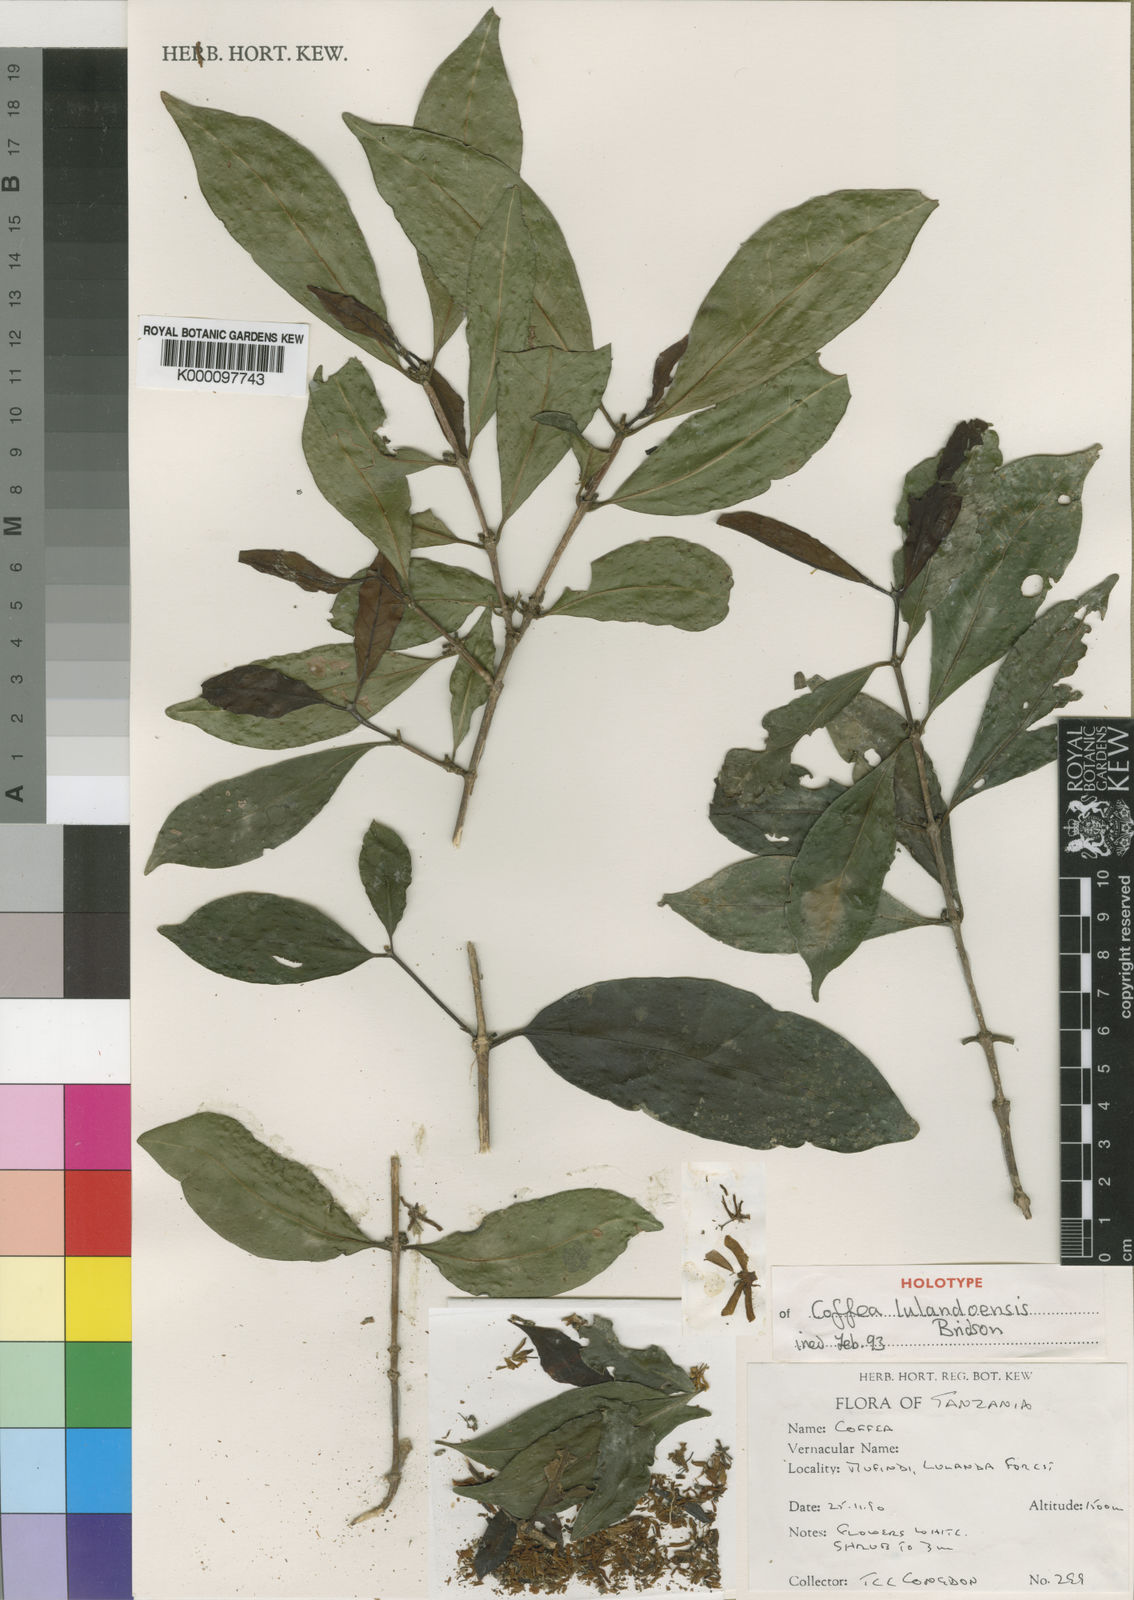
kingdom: Plantae
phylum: Tracheophyta
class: Magnoliopsida
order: Gentianales
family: Rubiaceae
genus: Coffea
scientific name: Coffea lulandoensis
